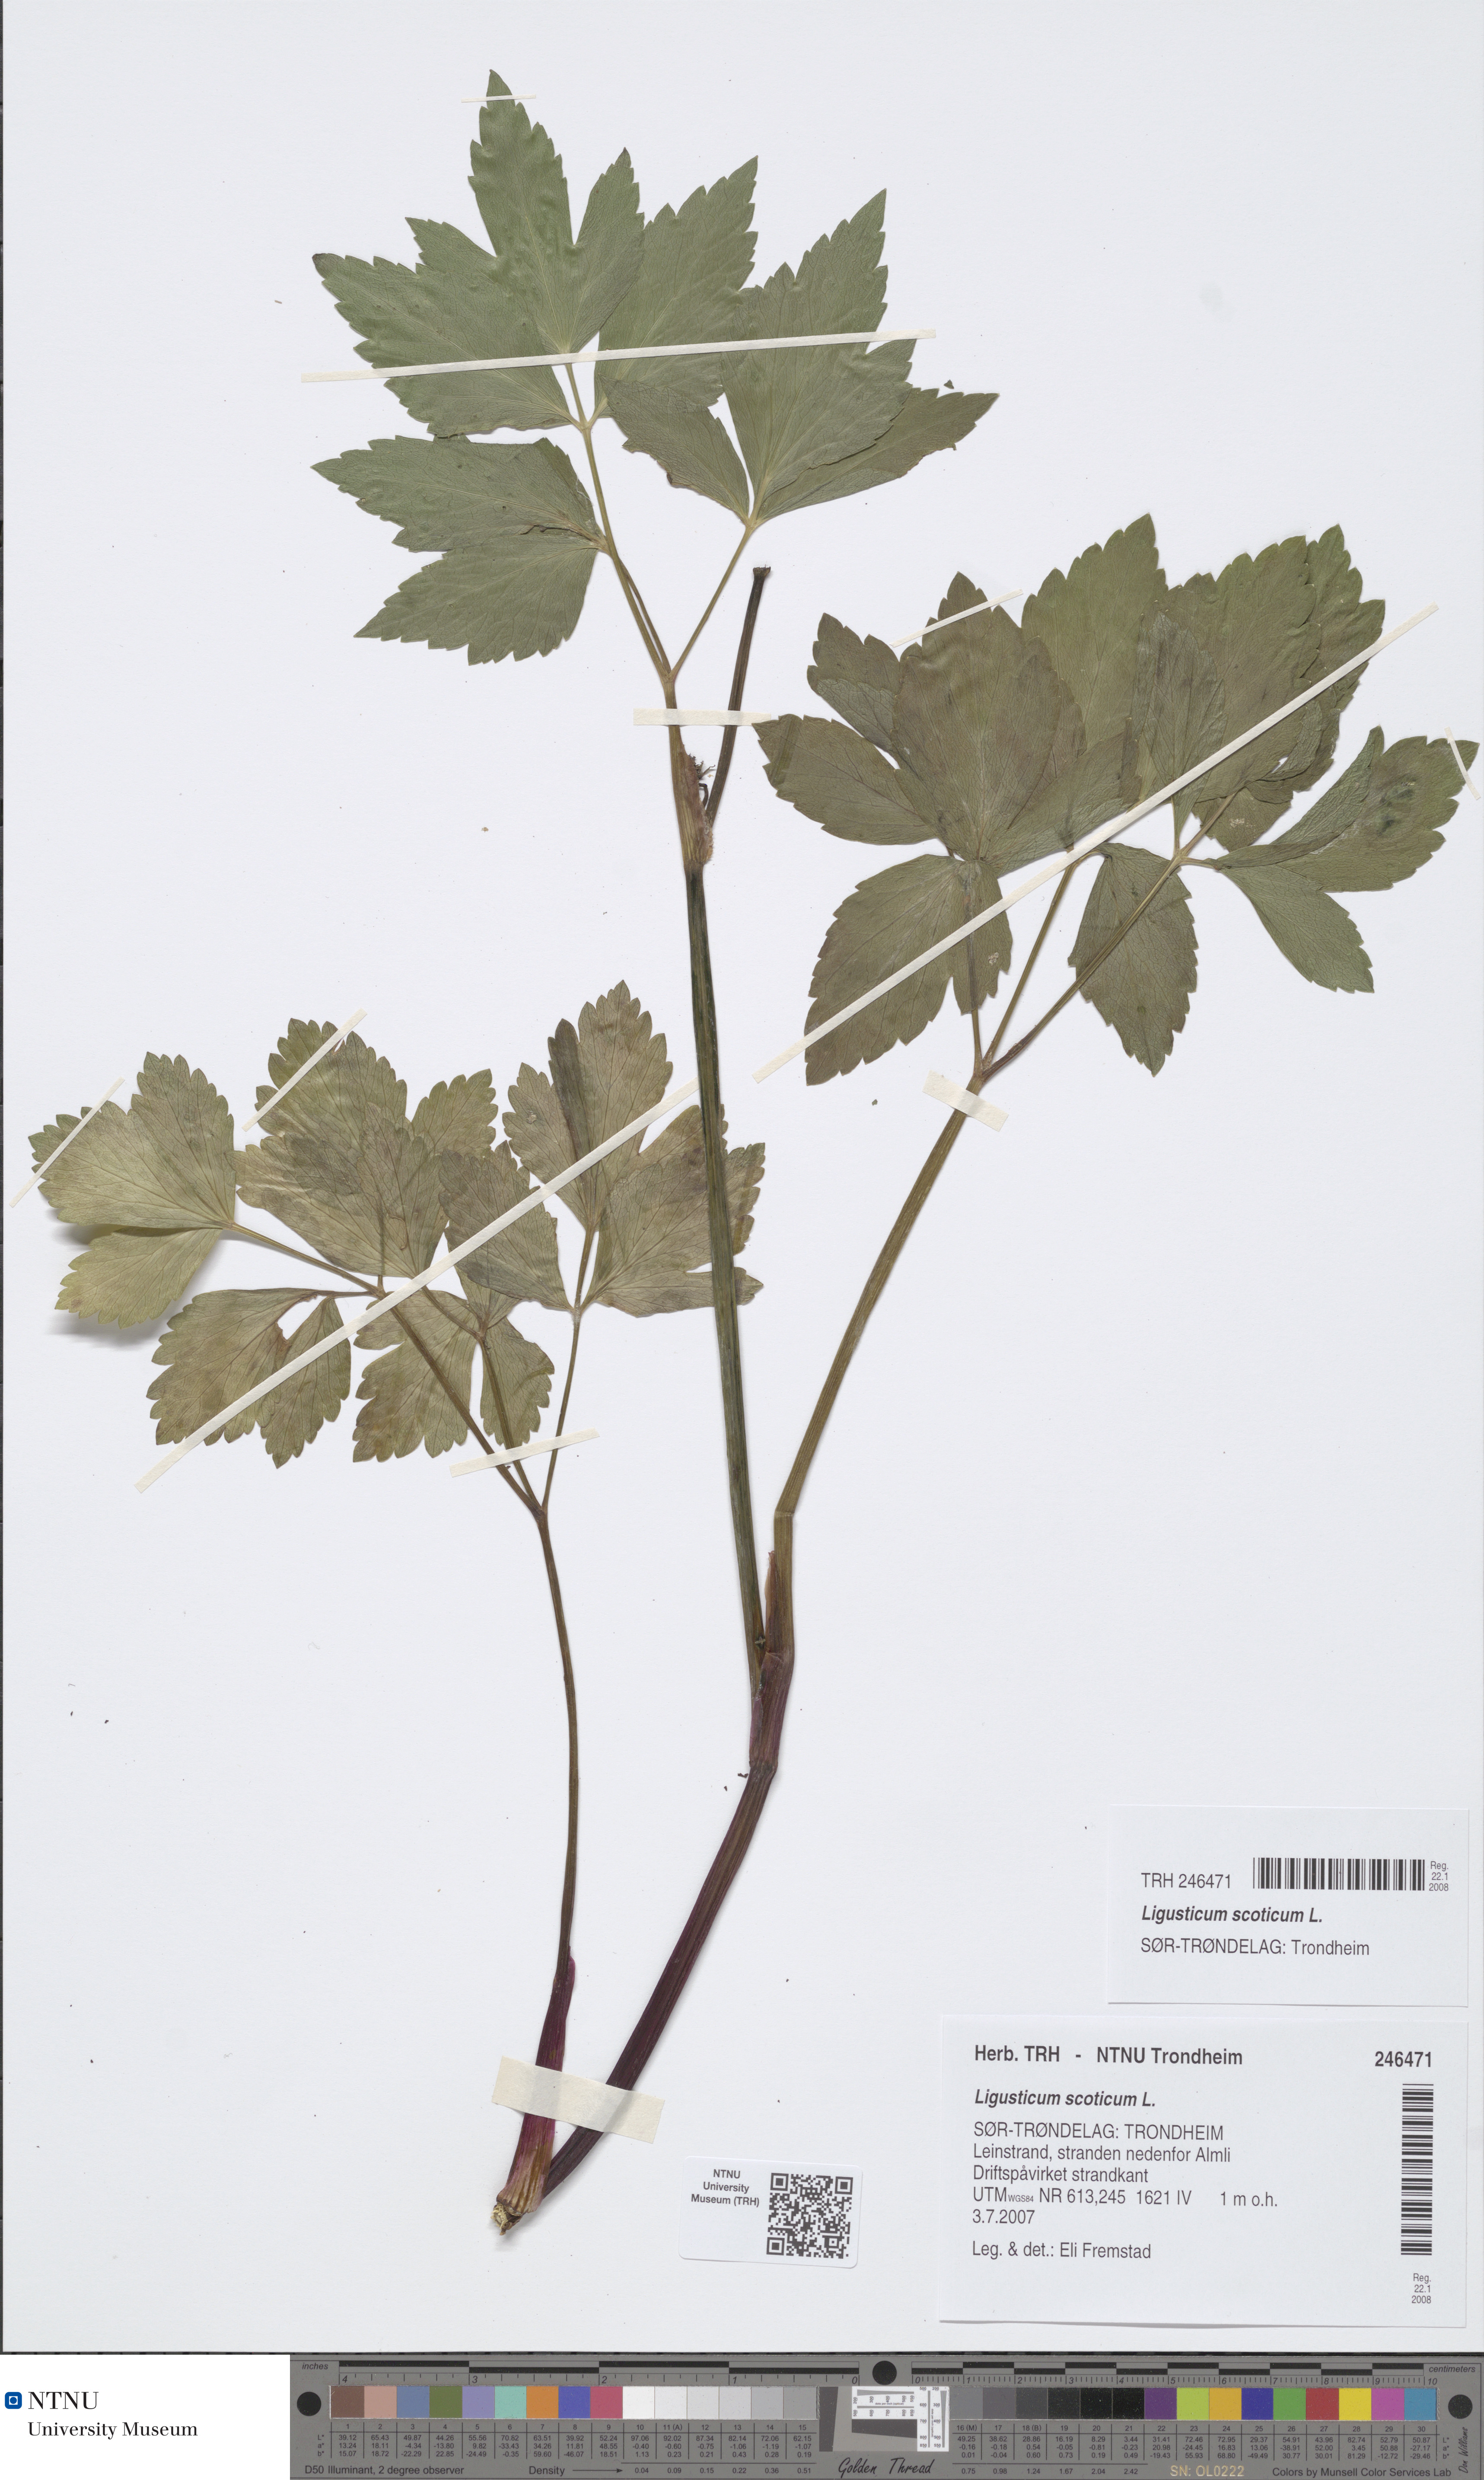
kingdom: Plantae
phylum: Tracheophyta
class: Magnoliopsida
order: Apiales
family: Apiaceae
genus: Ligusticum
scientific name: Ligusticum scothicum
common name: Beach lovage
